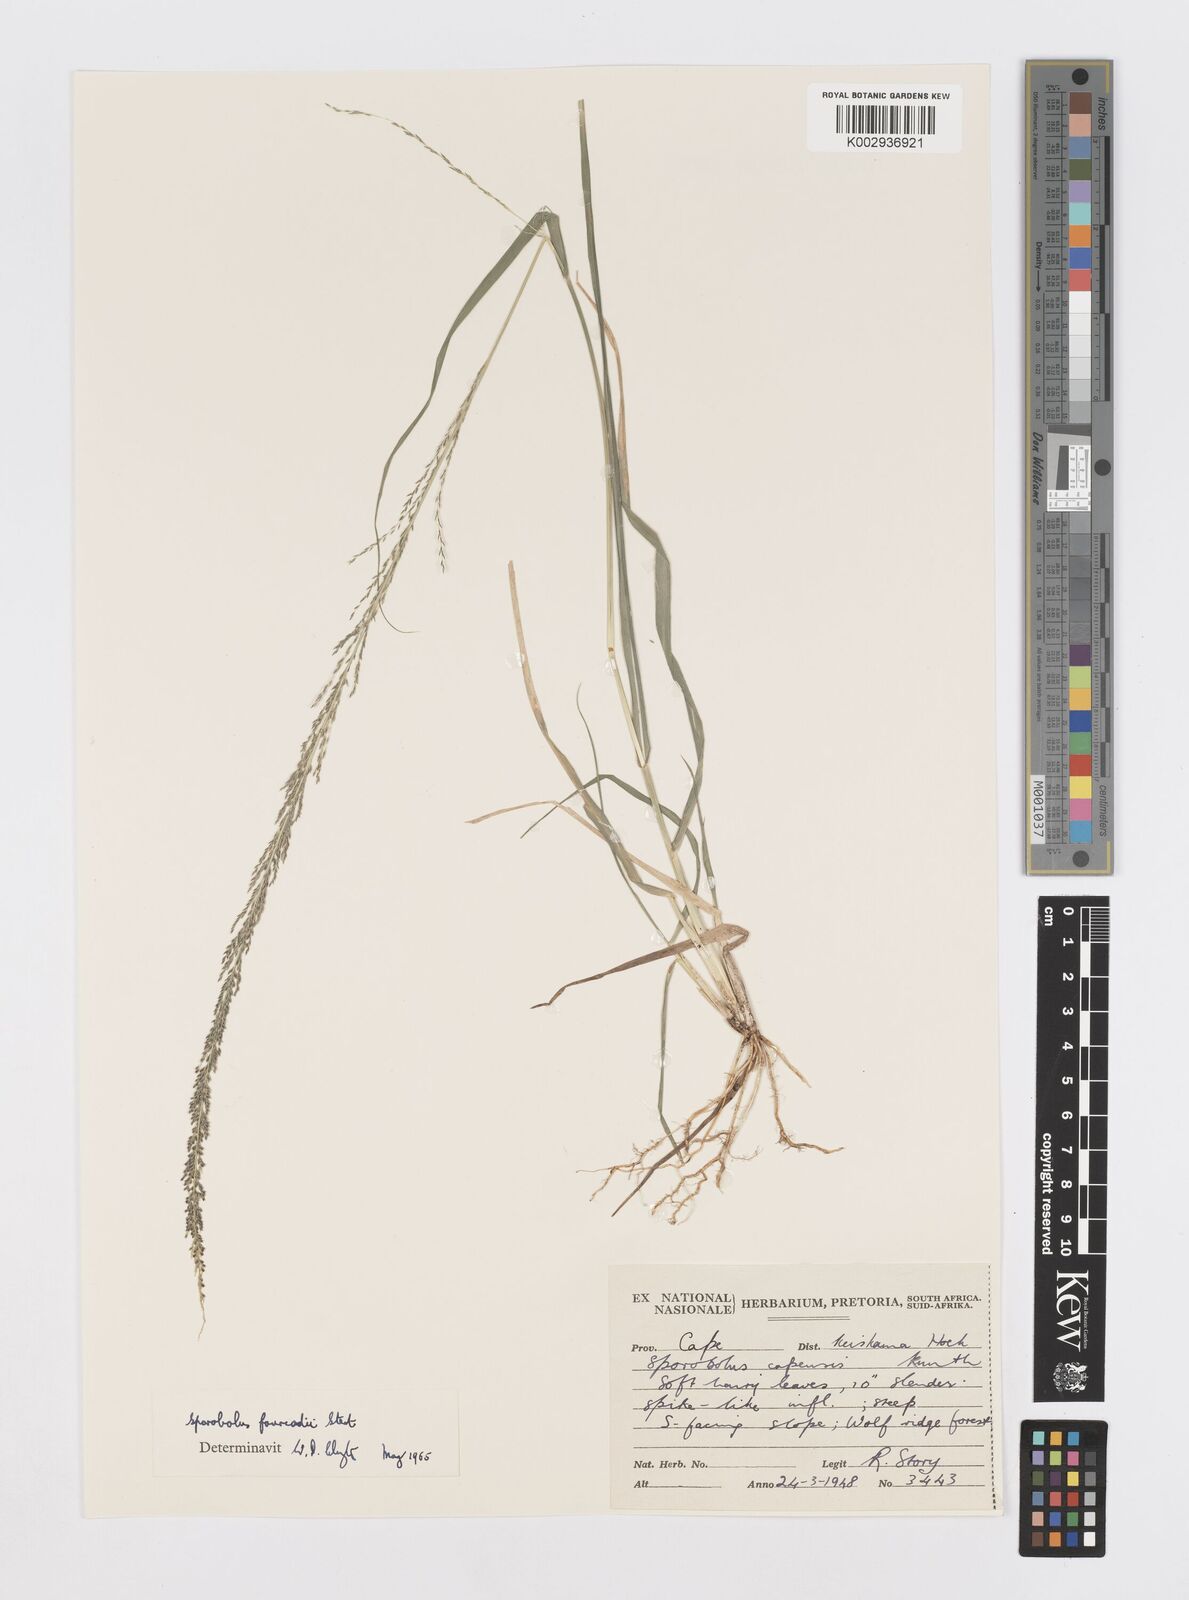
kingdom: Plantae
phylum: Tracheophyta
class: Liliopsida
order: Poales
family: Poaceae
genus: Sporobolus
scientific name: Sporobolus natalensis
